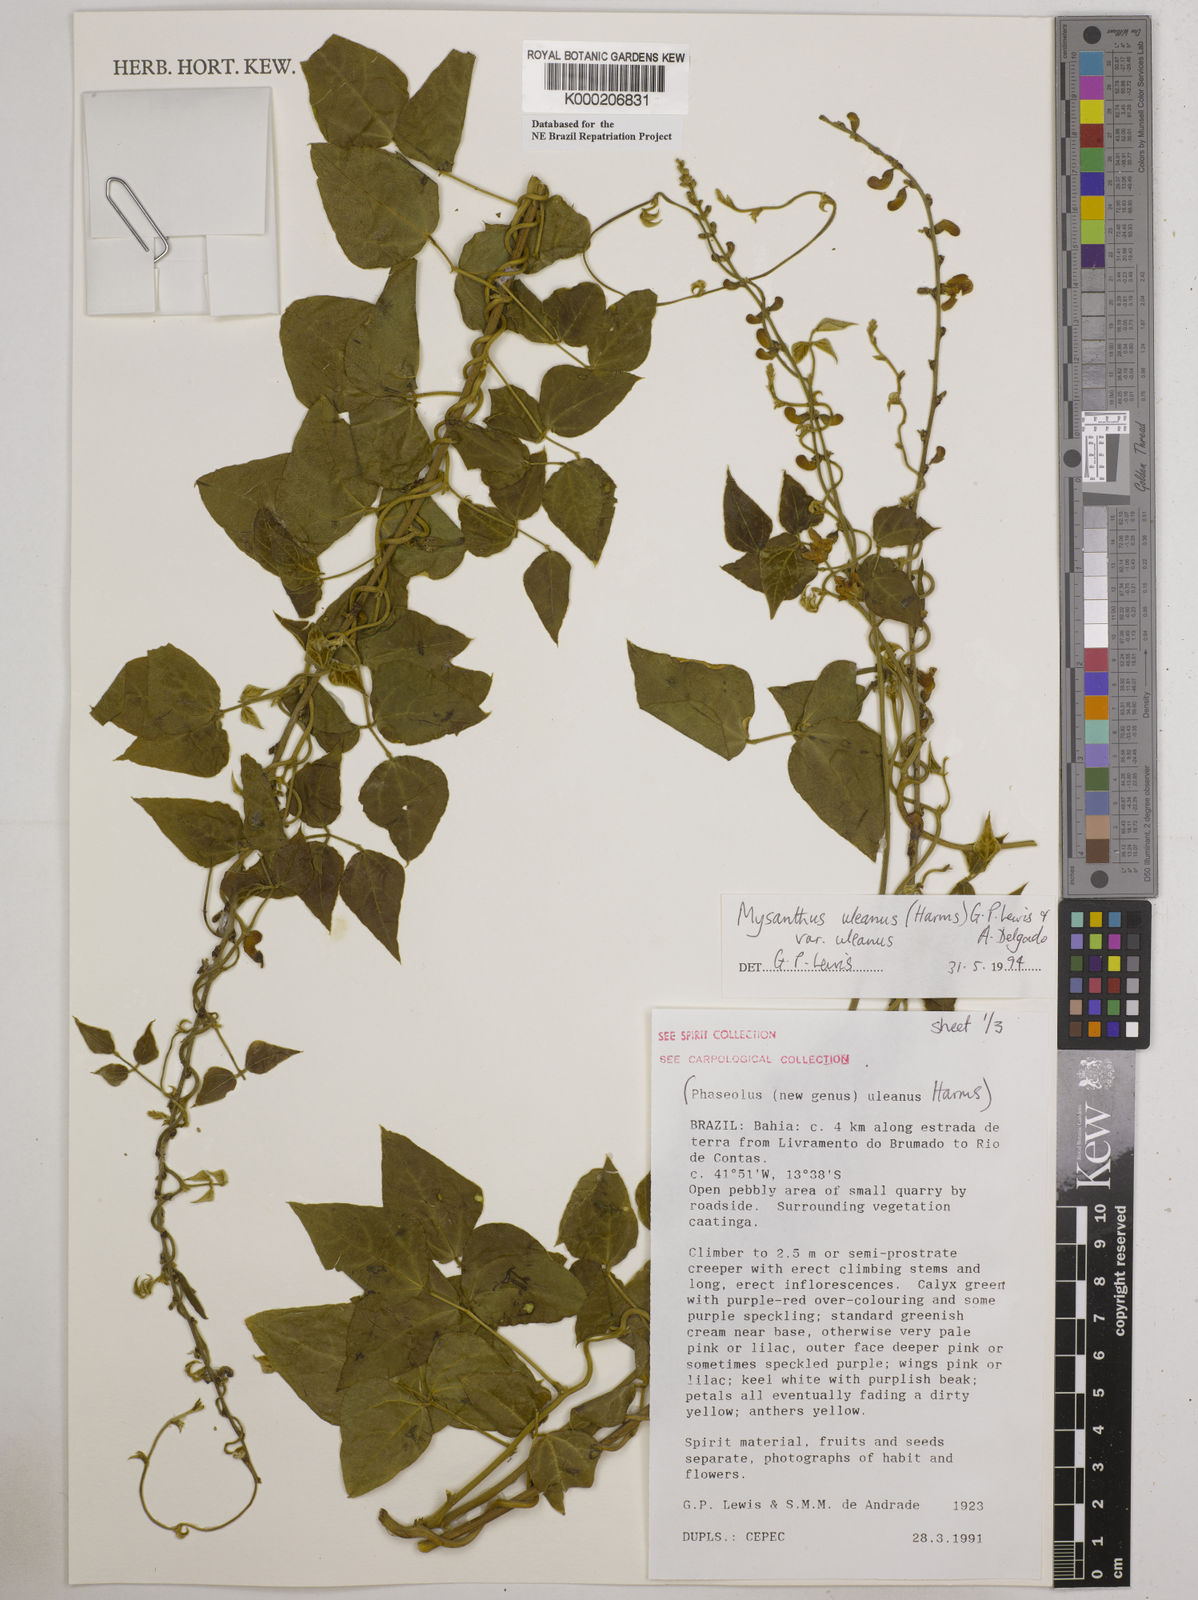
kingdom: Plantae
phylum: Tracheophyta
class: Magnoliopsida
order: Fabales
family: Fabaceae
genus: Mysanthus
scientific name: Mysanthus uleanus
